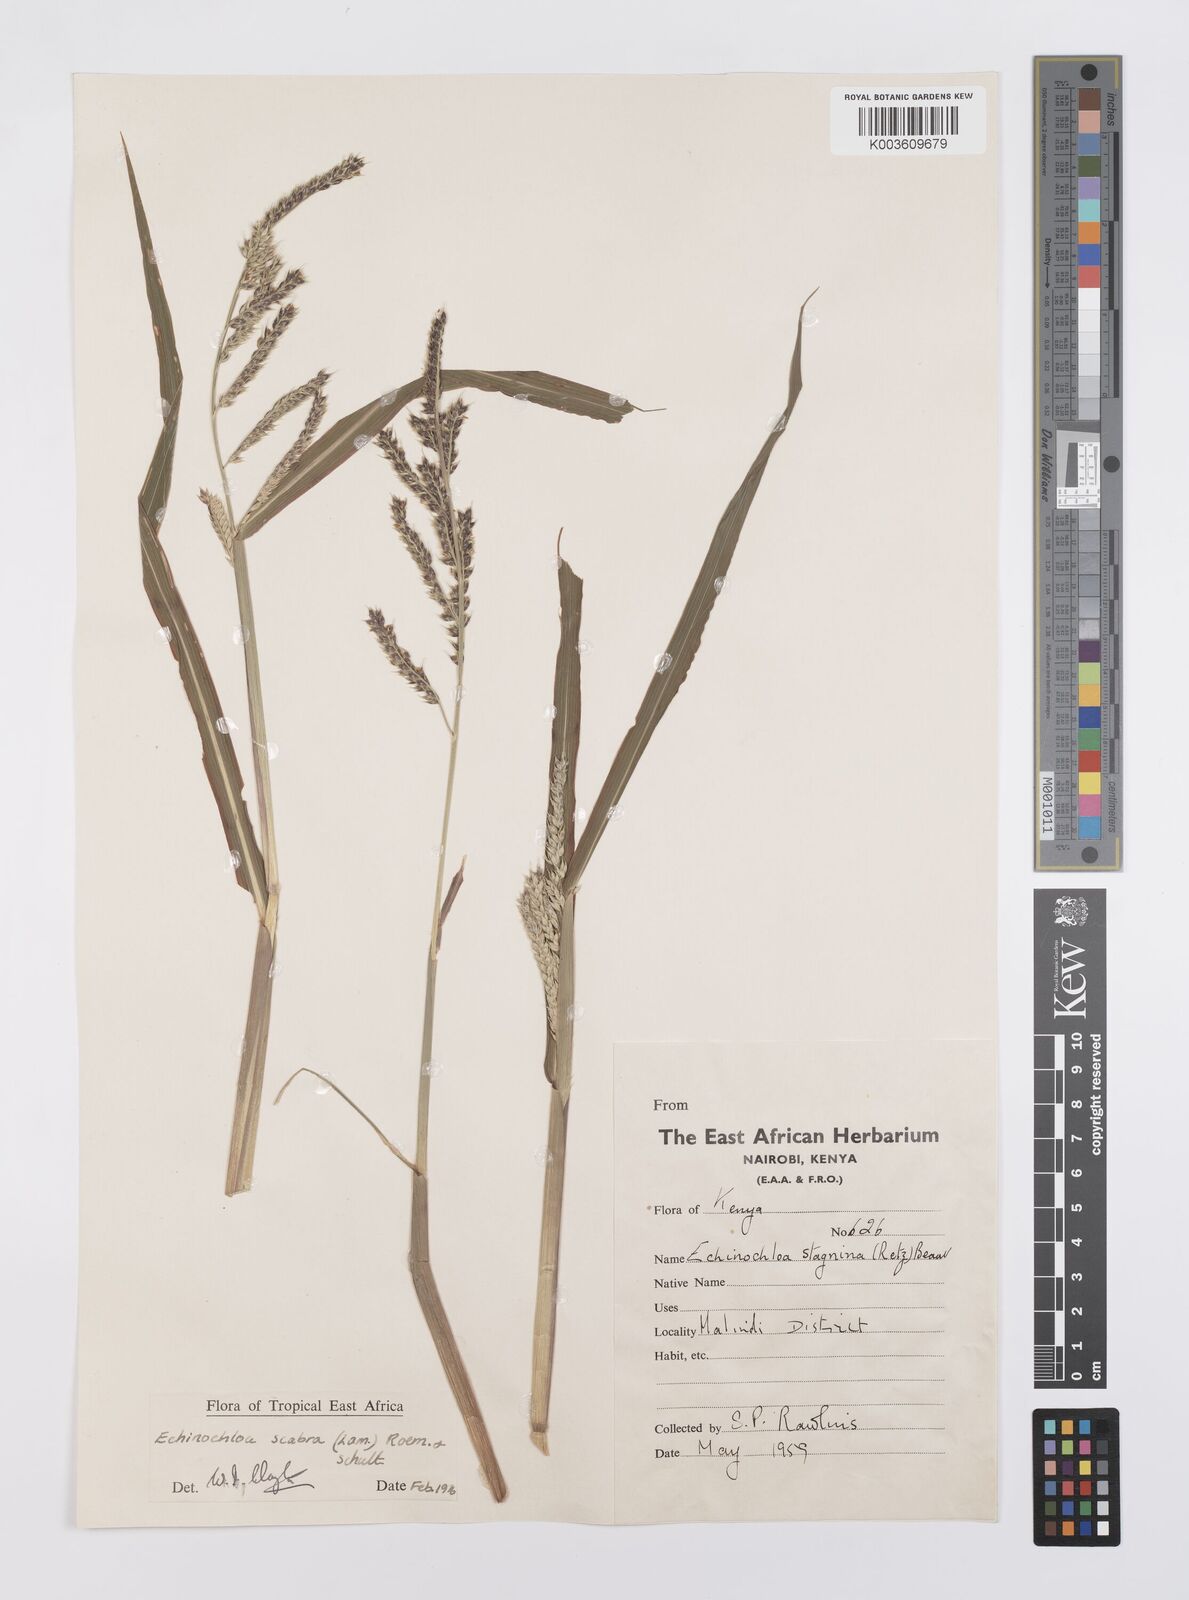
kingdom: Plantae
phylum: Tracheophyta
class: Liliopsida
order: Poales
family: Poaceae
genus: Echinochloa
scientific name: Echinochloa stagnina
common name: Burgu grass
